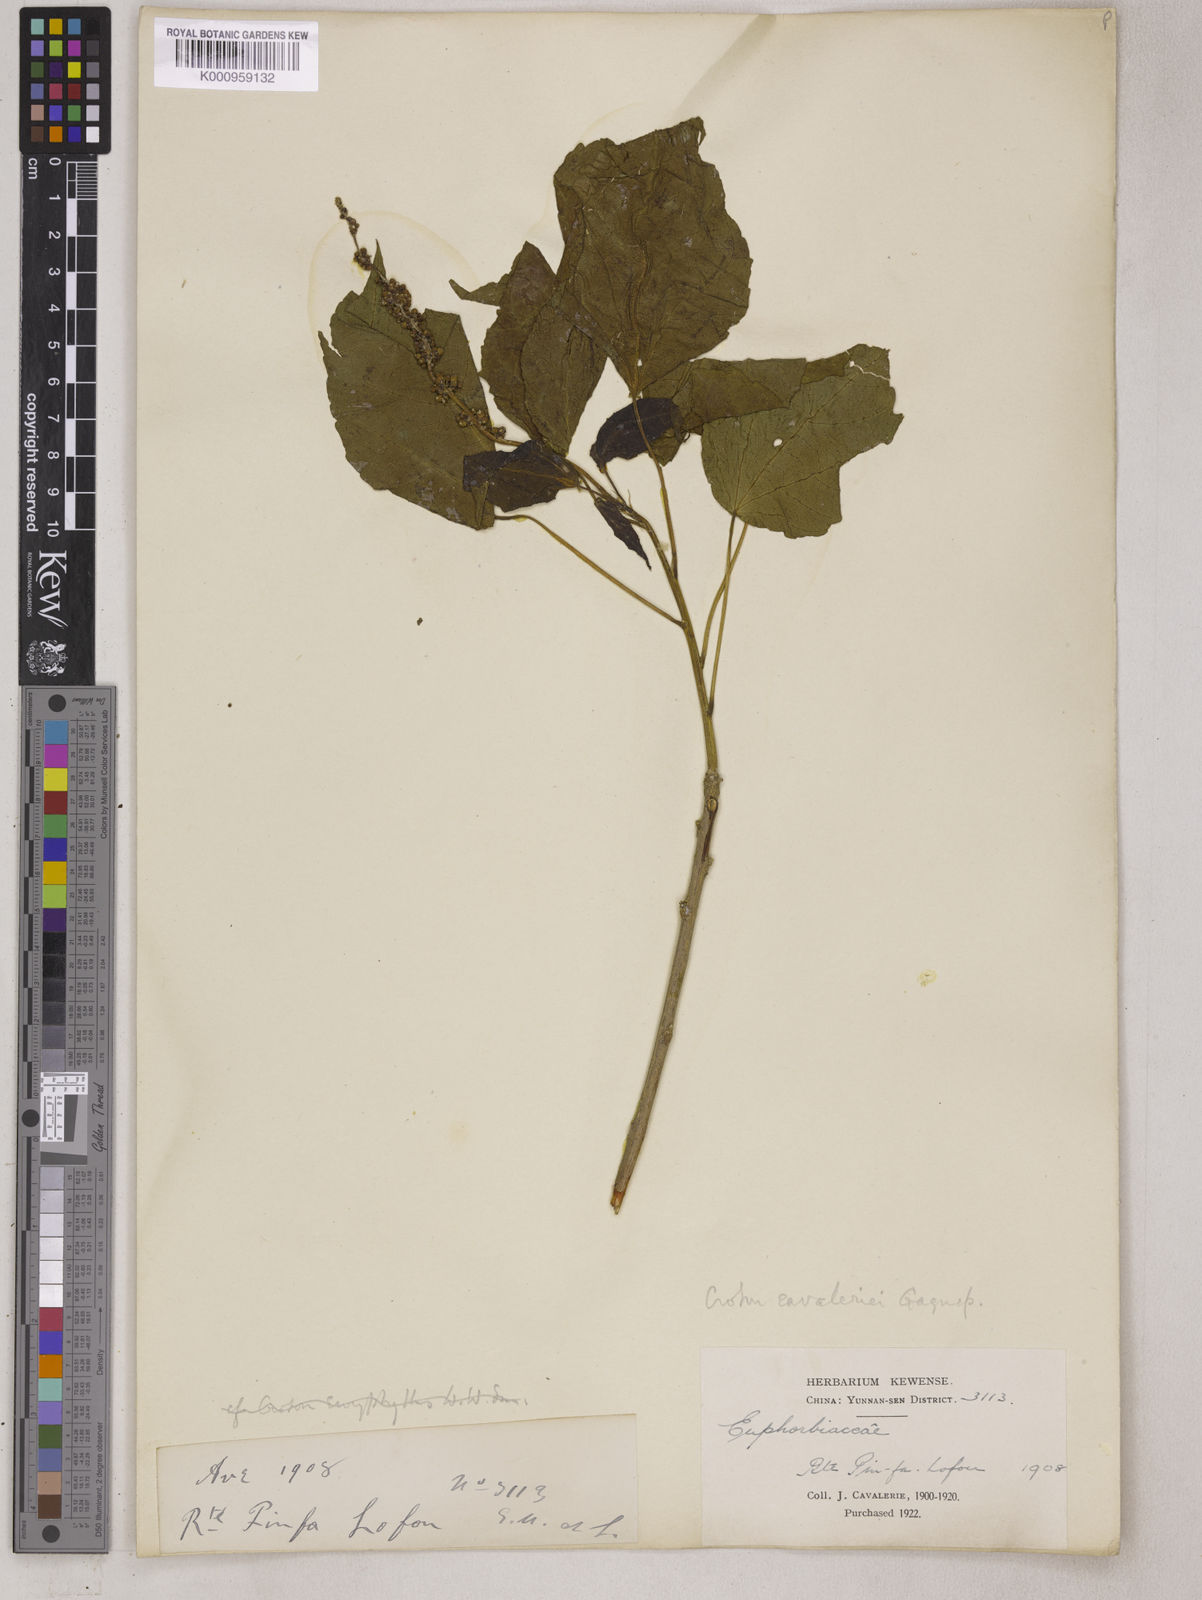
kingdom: Plantae
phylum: Tracheophyta
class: Magnoliopsida
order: Malpighiales
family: Euphorbiaceae
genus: Croton
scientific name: Croton euryphyllus
